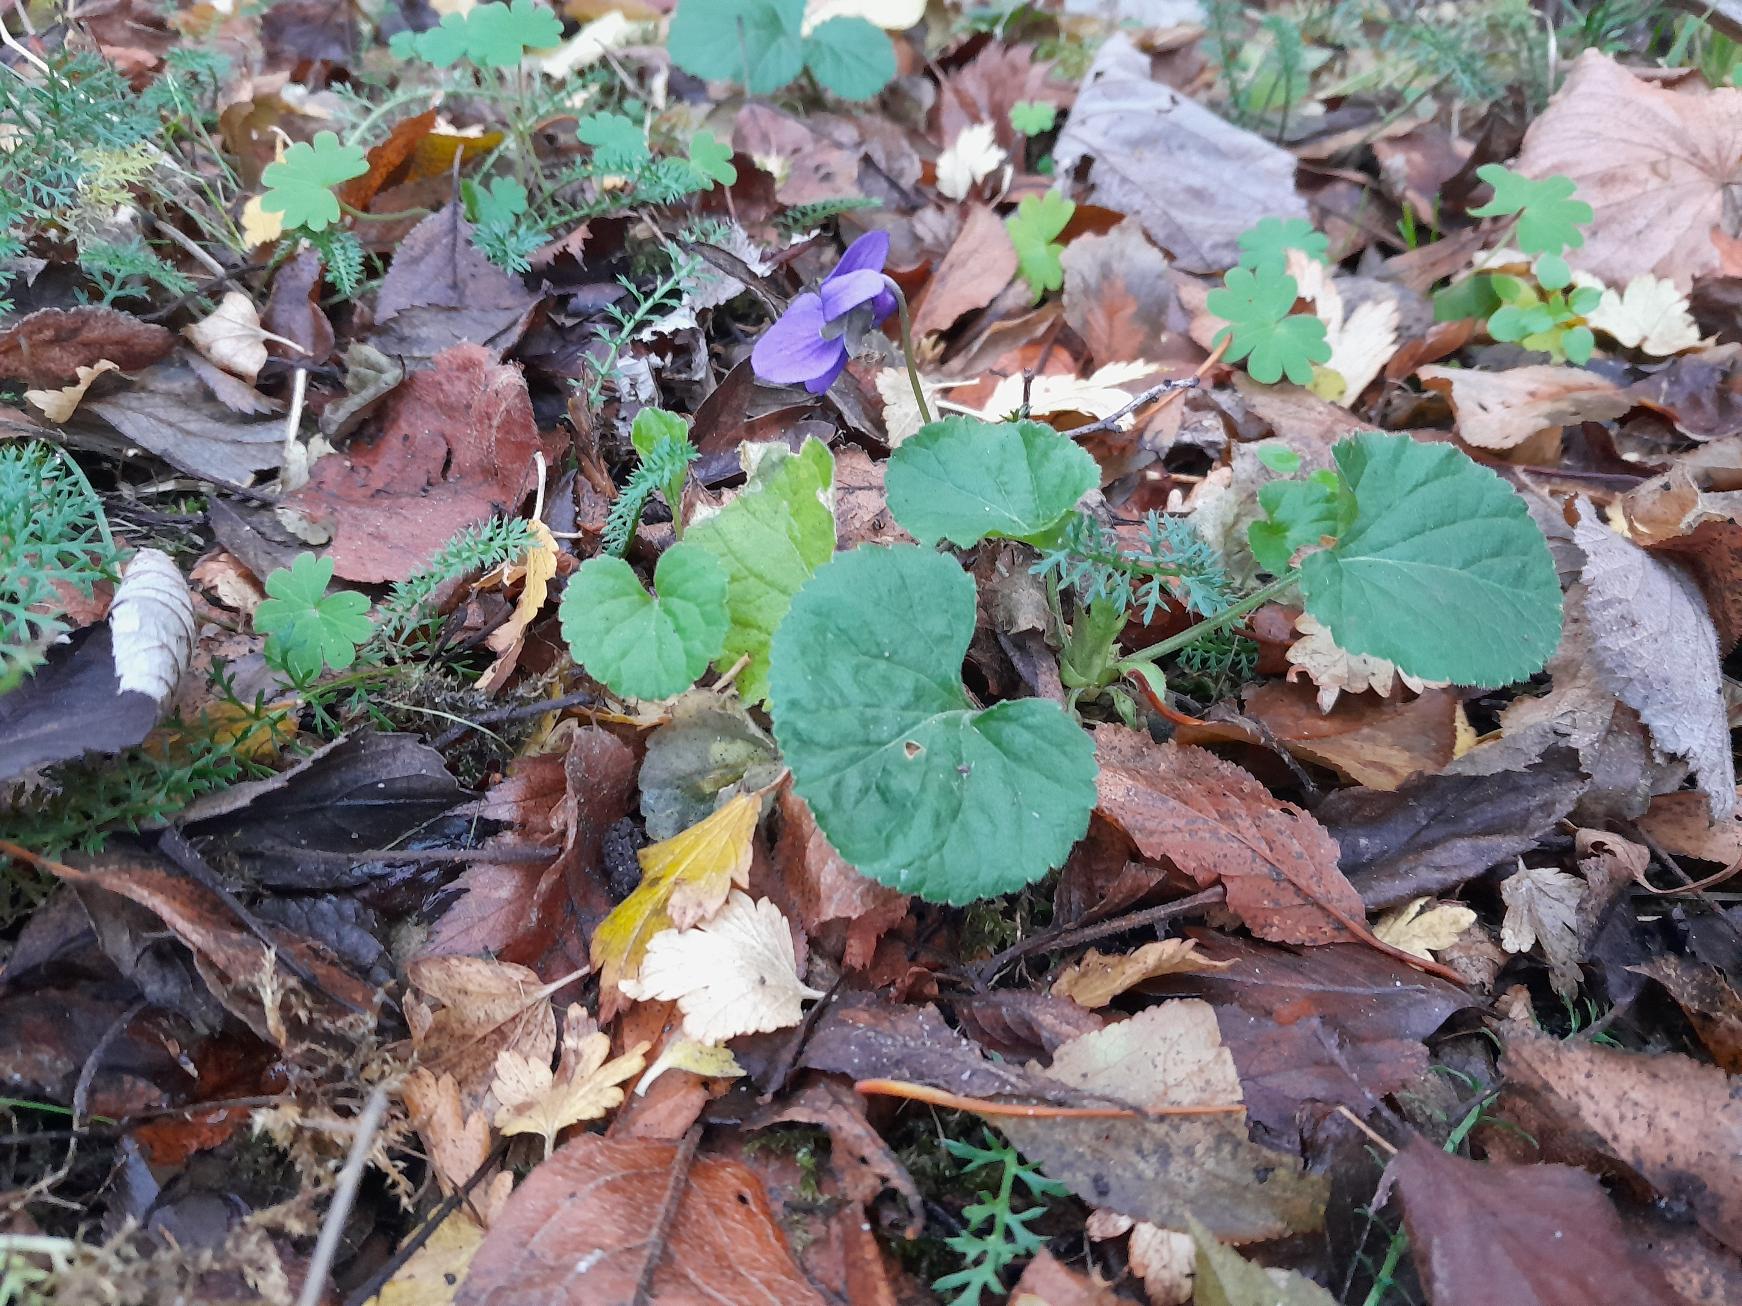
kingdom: Plantae
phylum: Tracheophyta
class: Magnoliopsida
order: Malpighiales
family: Violaceae
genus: Viola
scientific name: Viola odorata
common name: Marts-viol
